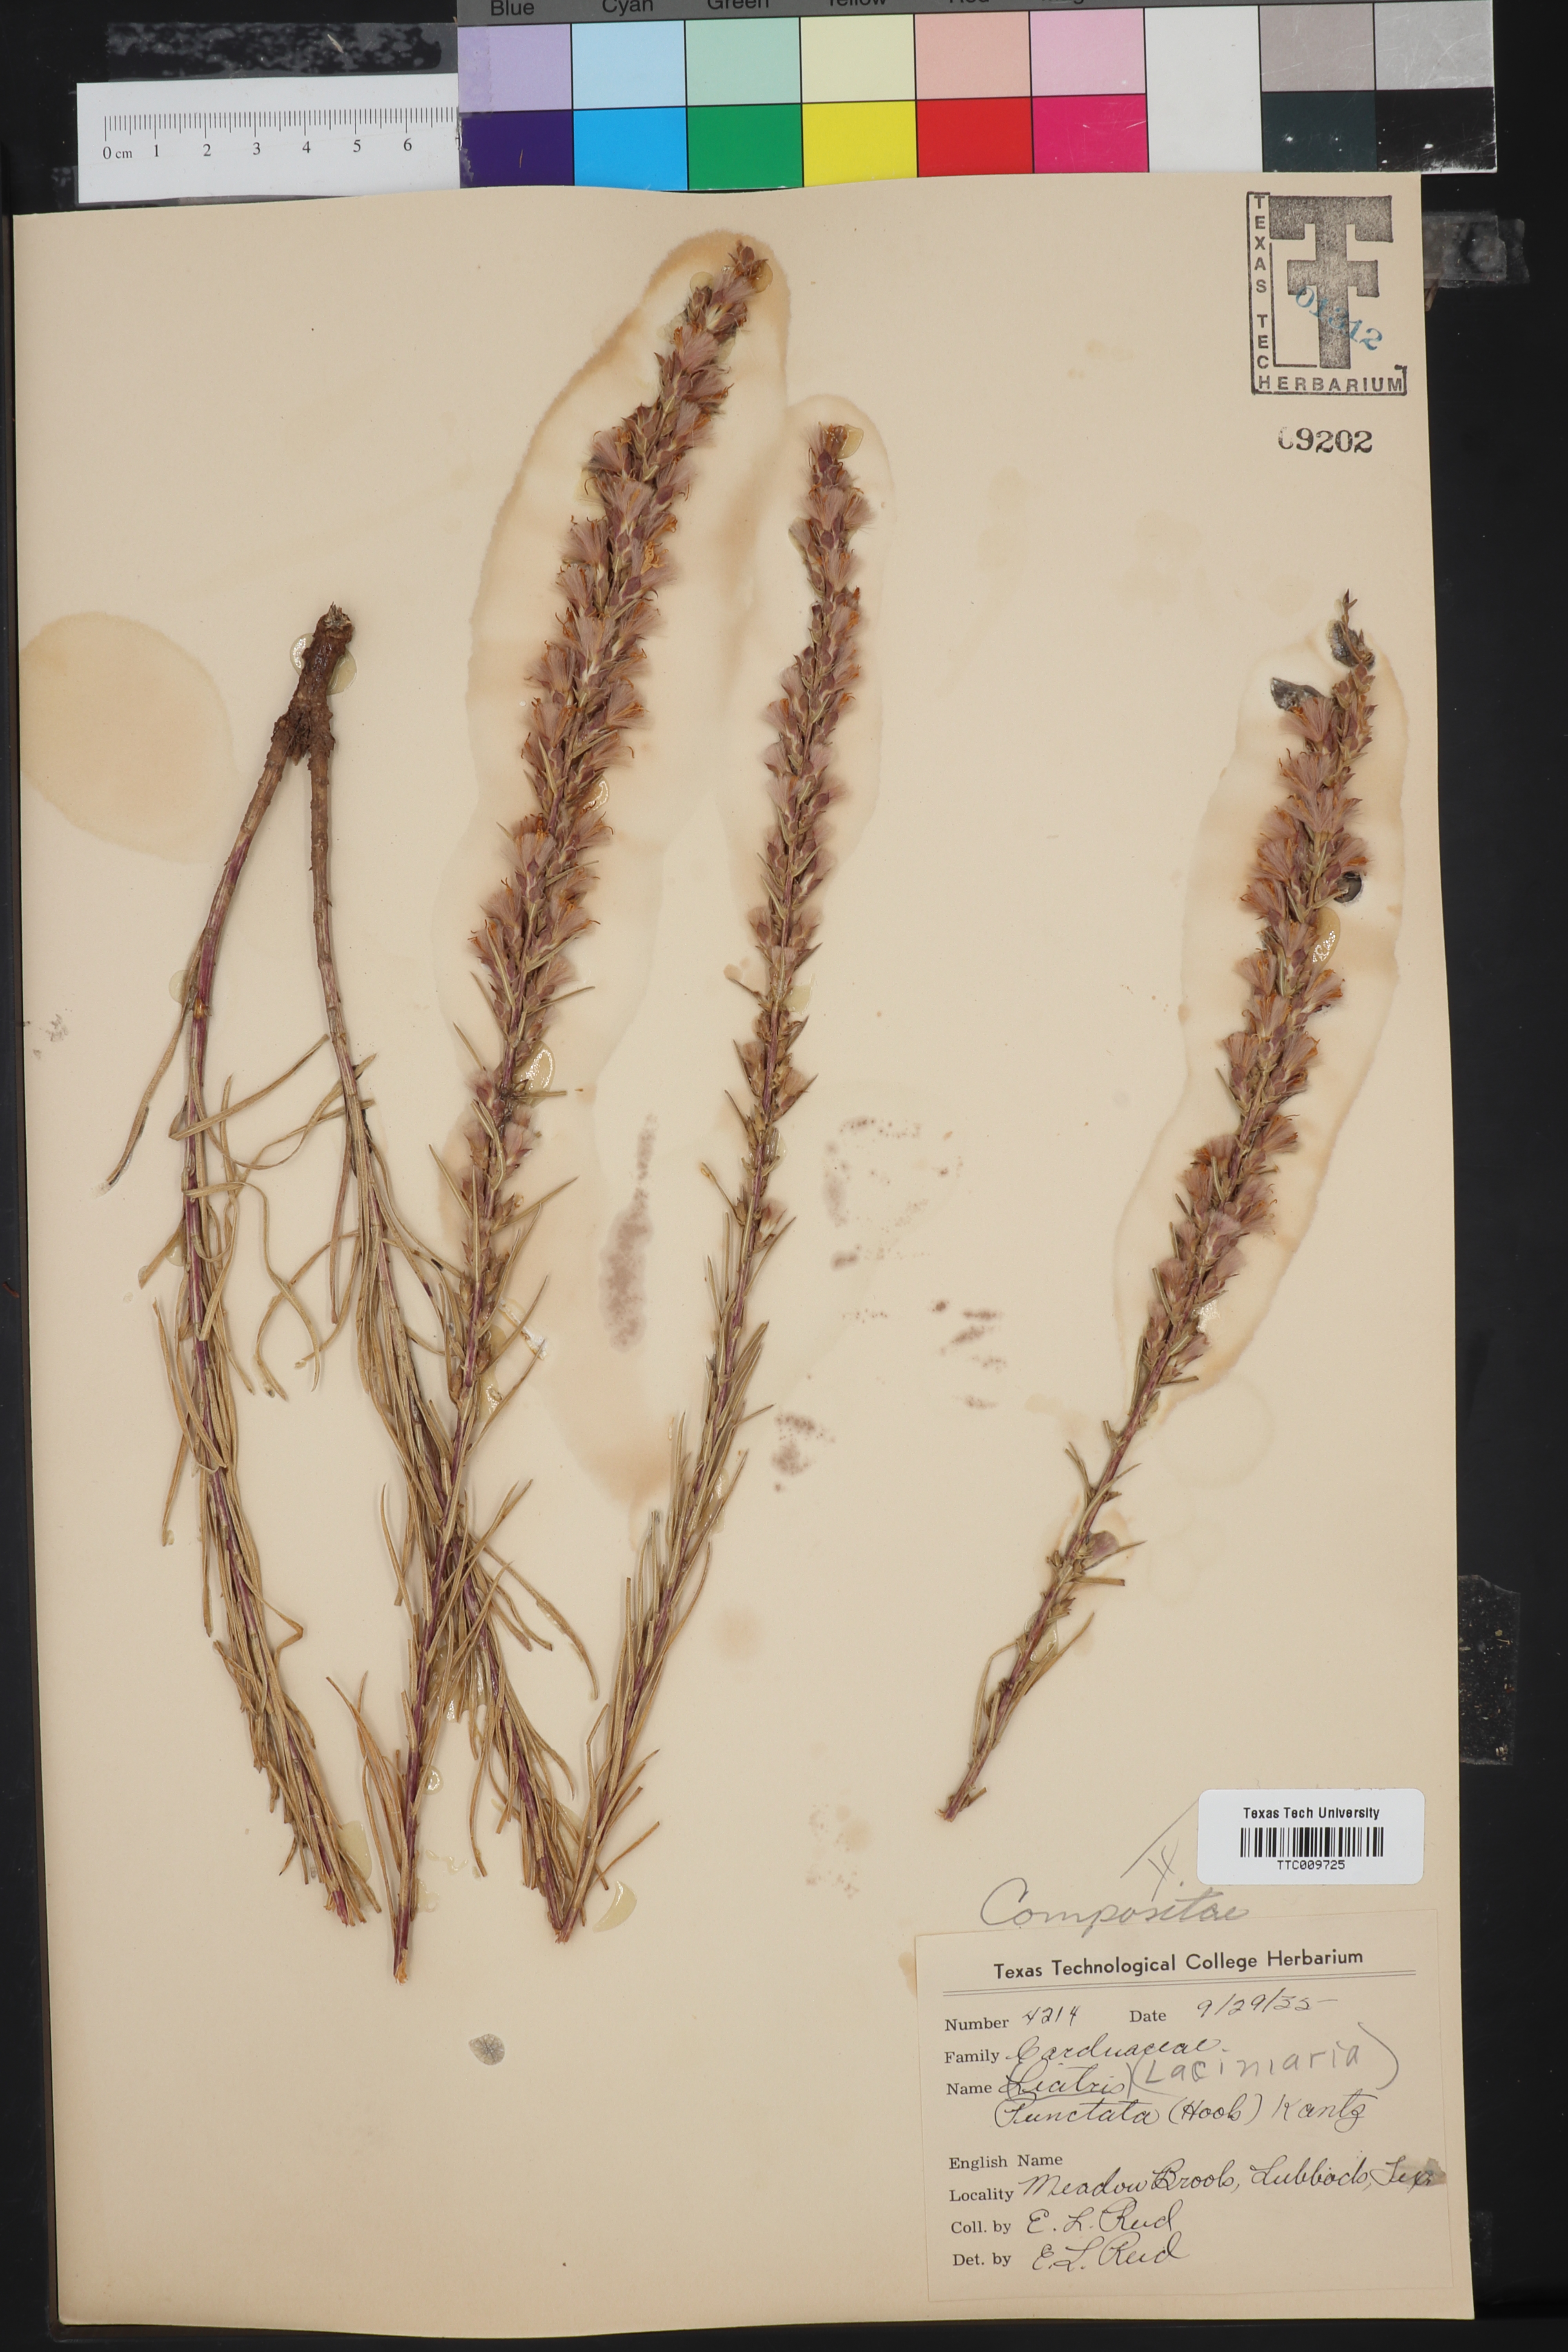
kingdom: Plantae
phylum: Tracheophyta
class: Magnoliopsida
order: Asterales
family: Asteraceae
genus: Liatris
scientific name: Liatris punctata
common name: Dotted gayfeather
